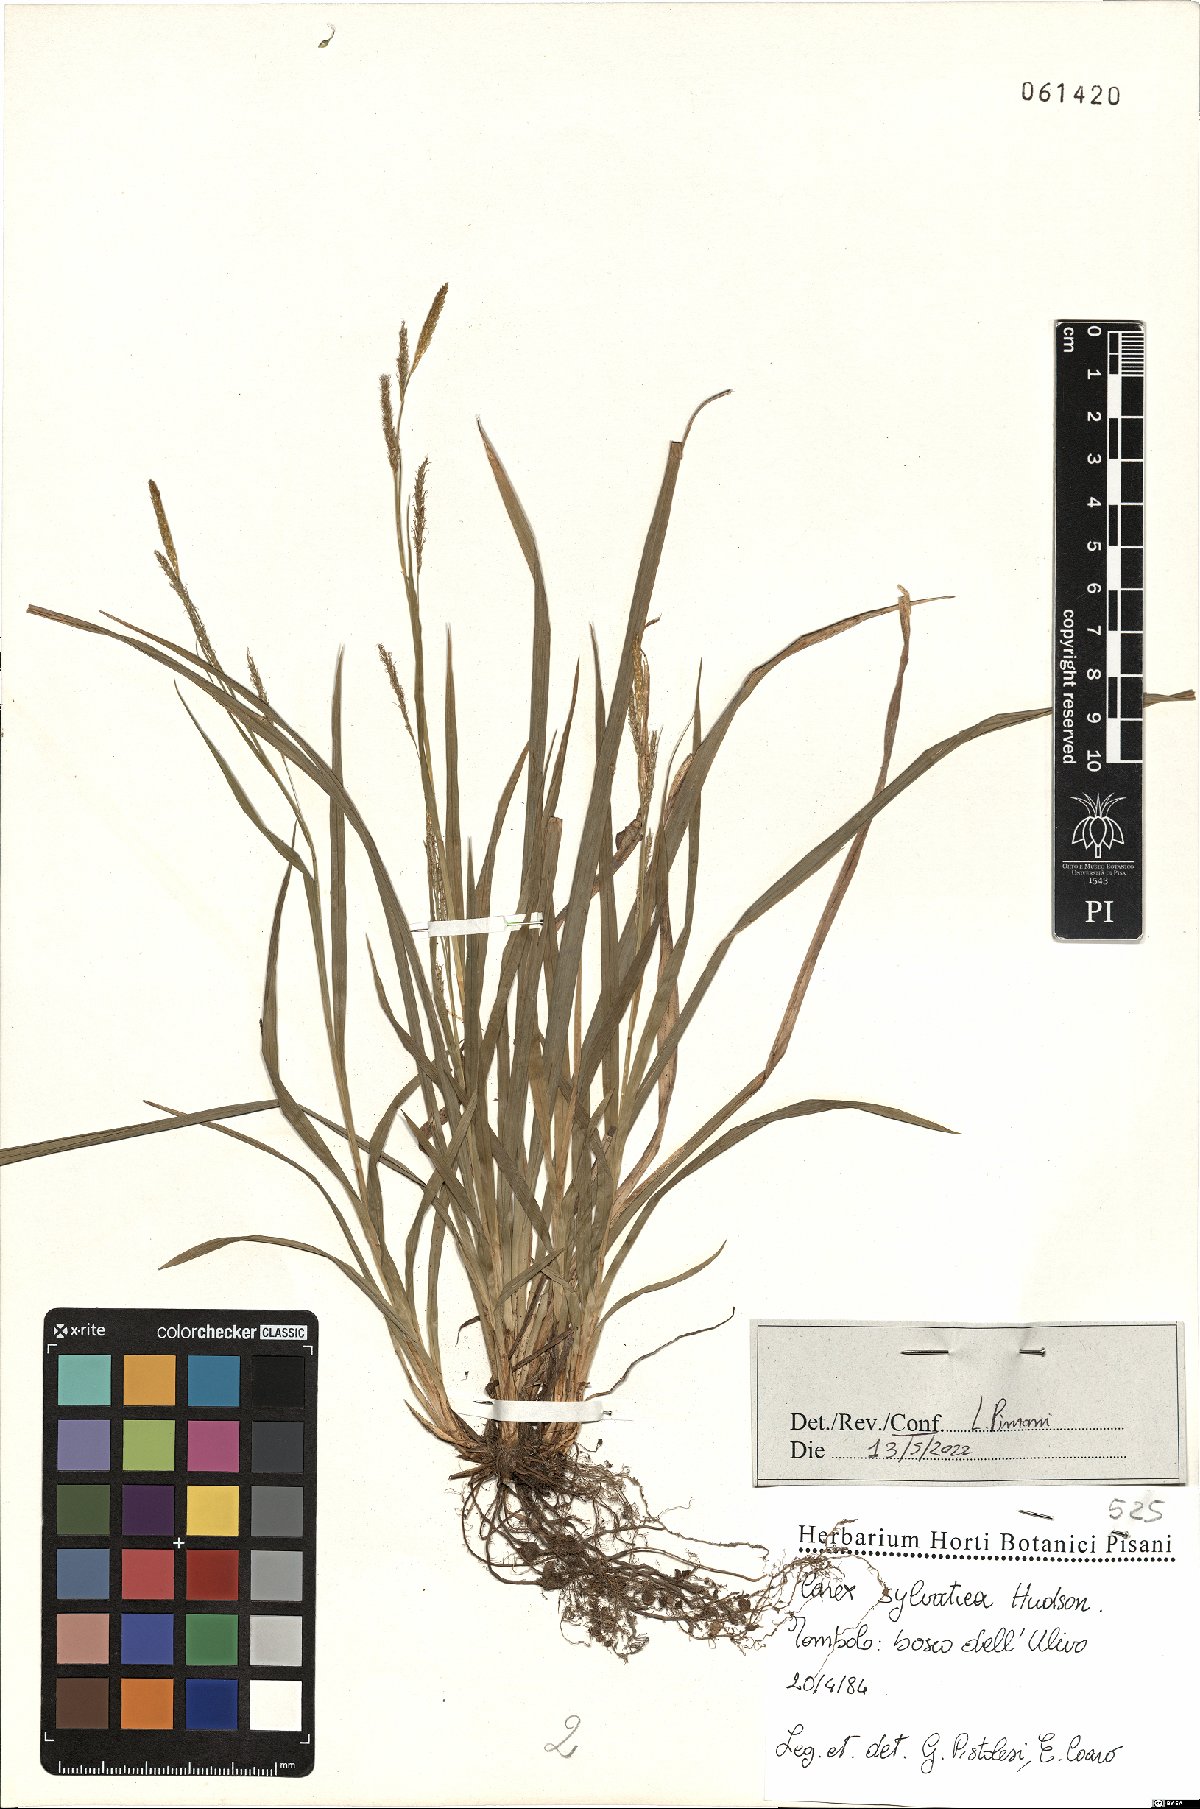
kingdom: Plantae
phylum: Tracheophyta
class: Liliopsida
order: Poales
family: Cyperaceae
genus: Carex
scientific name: Carex sylvatica
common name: Wood-sedge
